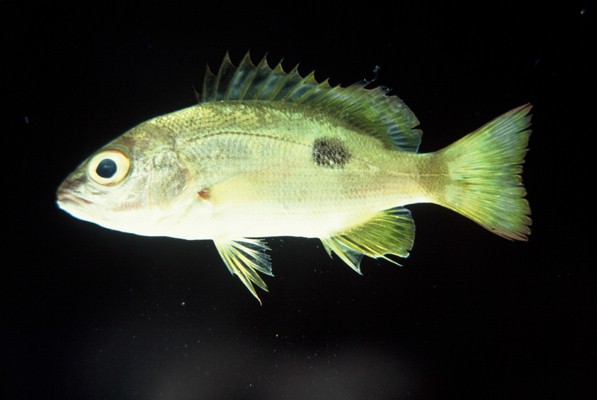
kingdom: Animalia
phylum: Chordata
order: Perciformes
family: Lutjanidae
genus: Lutjanus
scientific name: Lutjanus fulviflamma
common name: Blackspot snapper
